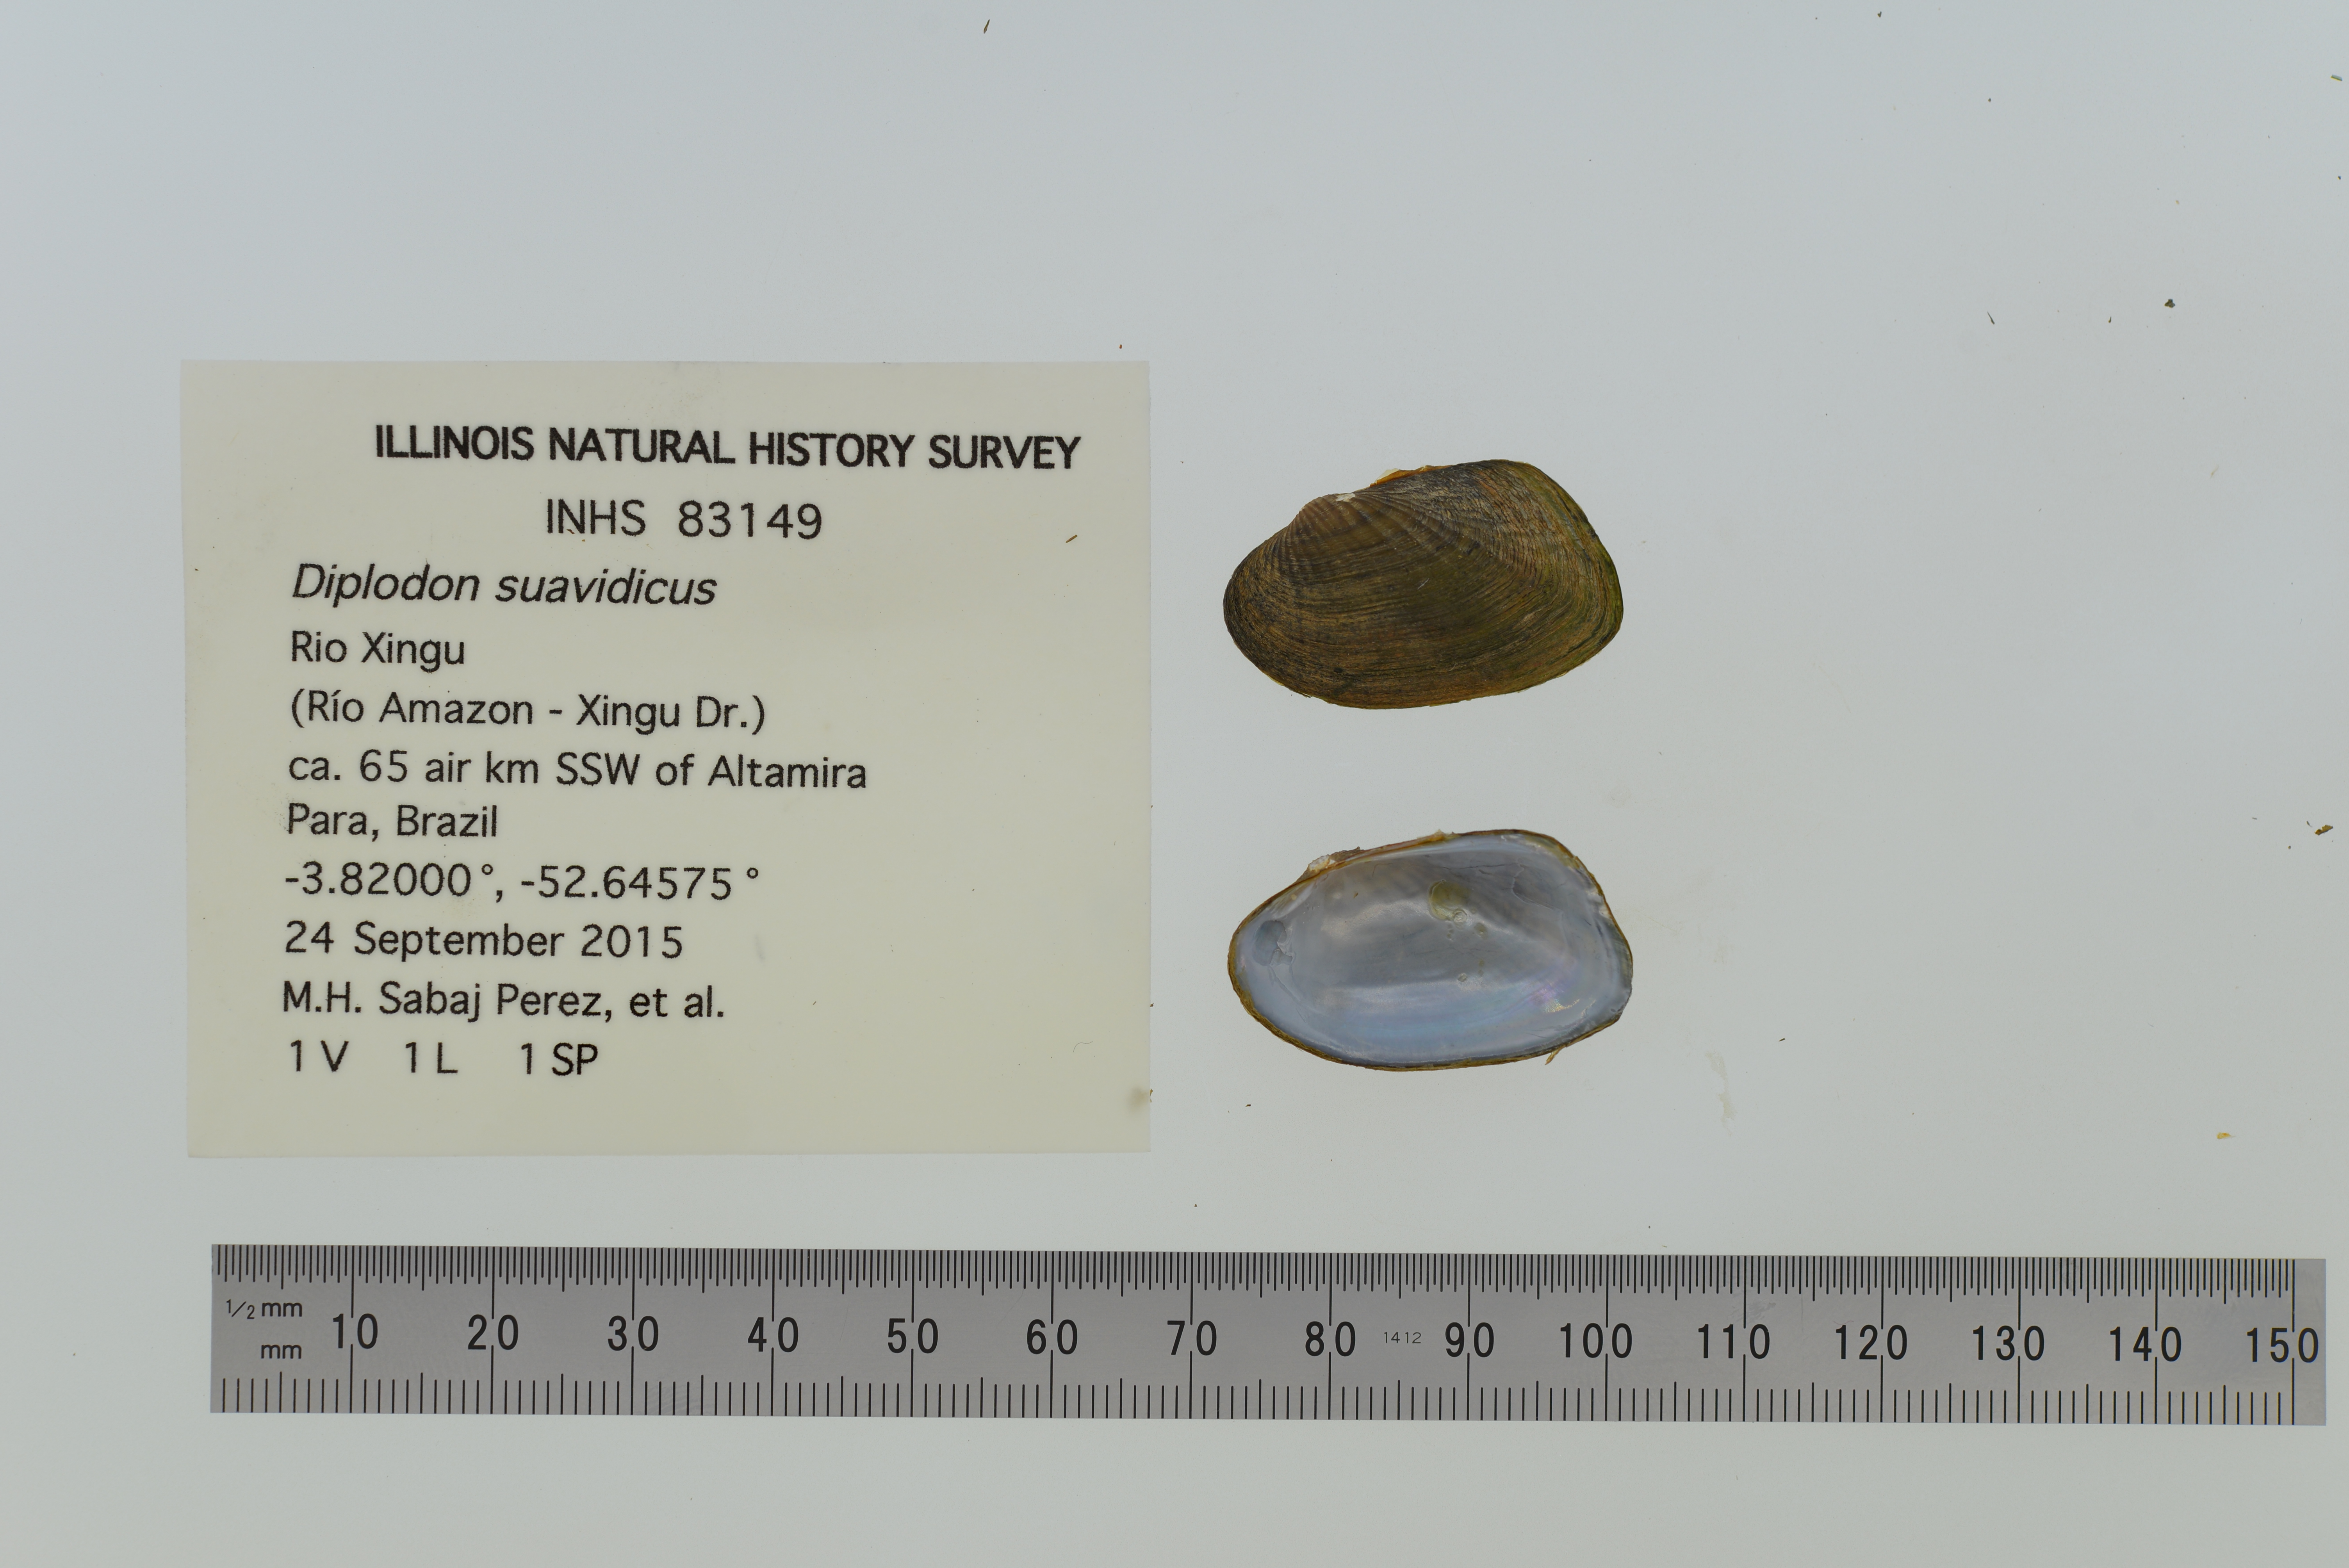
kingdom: Animalia
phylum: Mollusca
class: Bivalvia
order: Unionida
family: Hyriidae
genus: Diplodon
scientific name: Diplodon suavidicus
